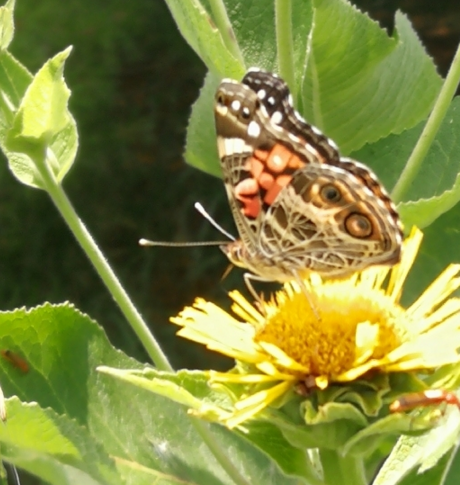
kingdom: Animalia
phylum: Arthropoda
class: Insecta
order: Lepidoptera
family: Nymphalidae
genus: Vanessa
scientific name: Vanessa virginiensis
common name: American Lady
